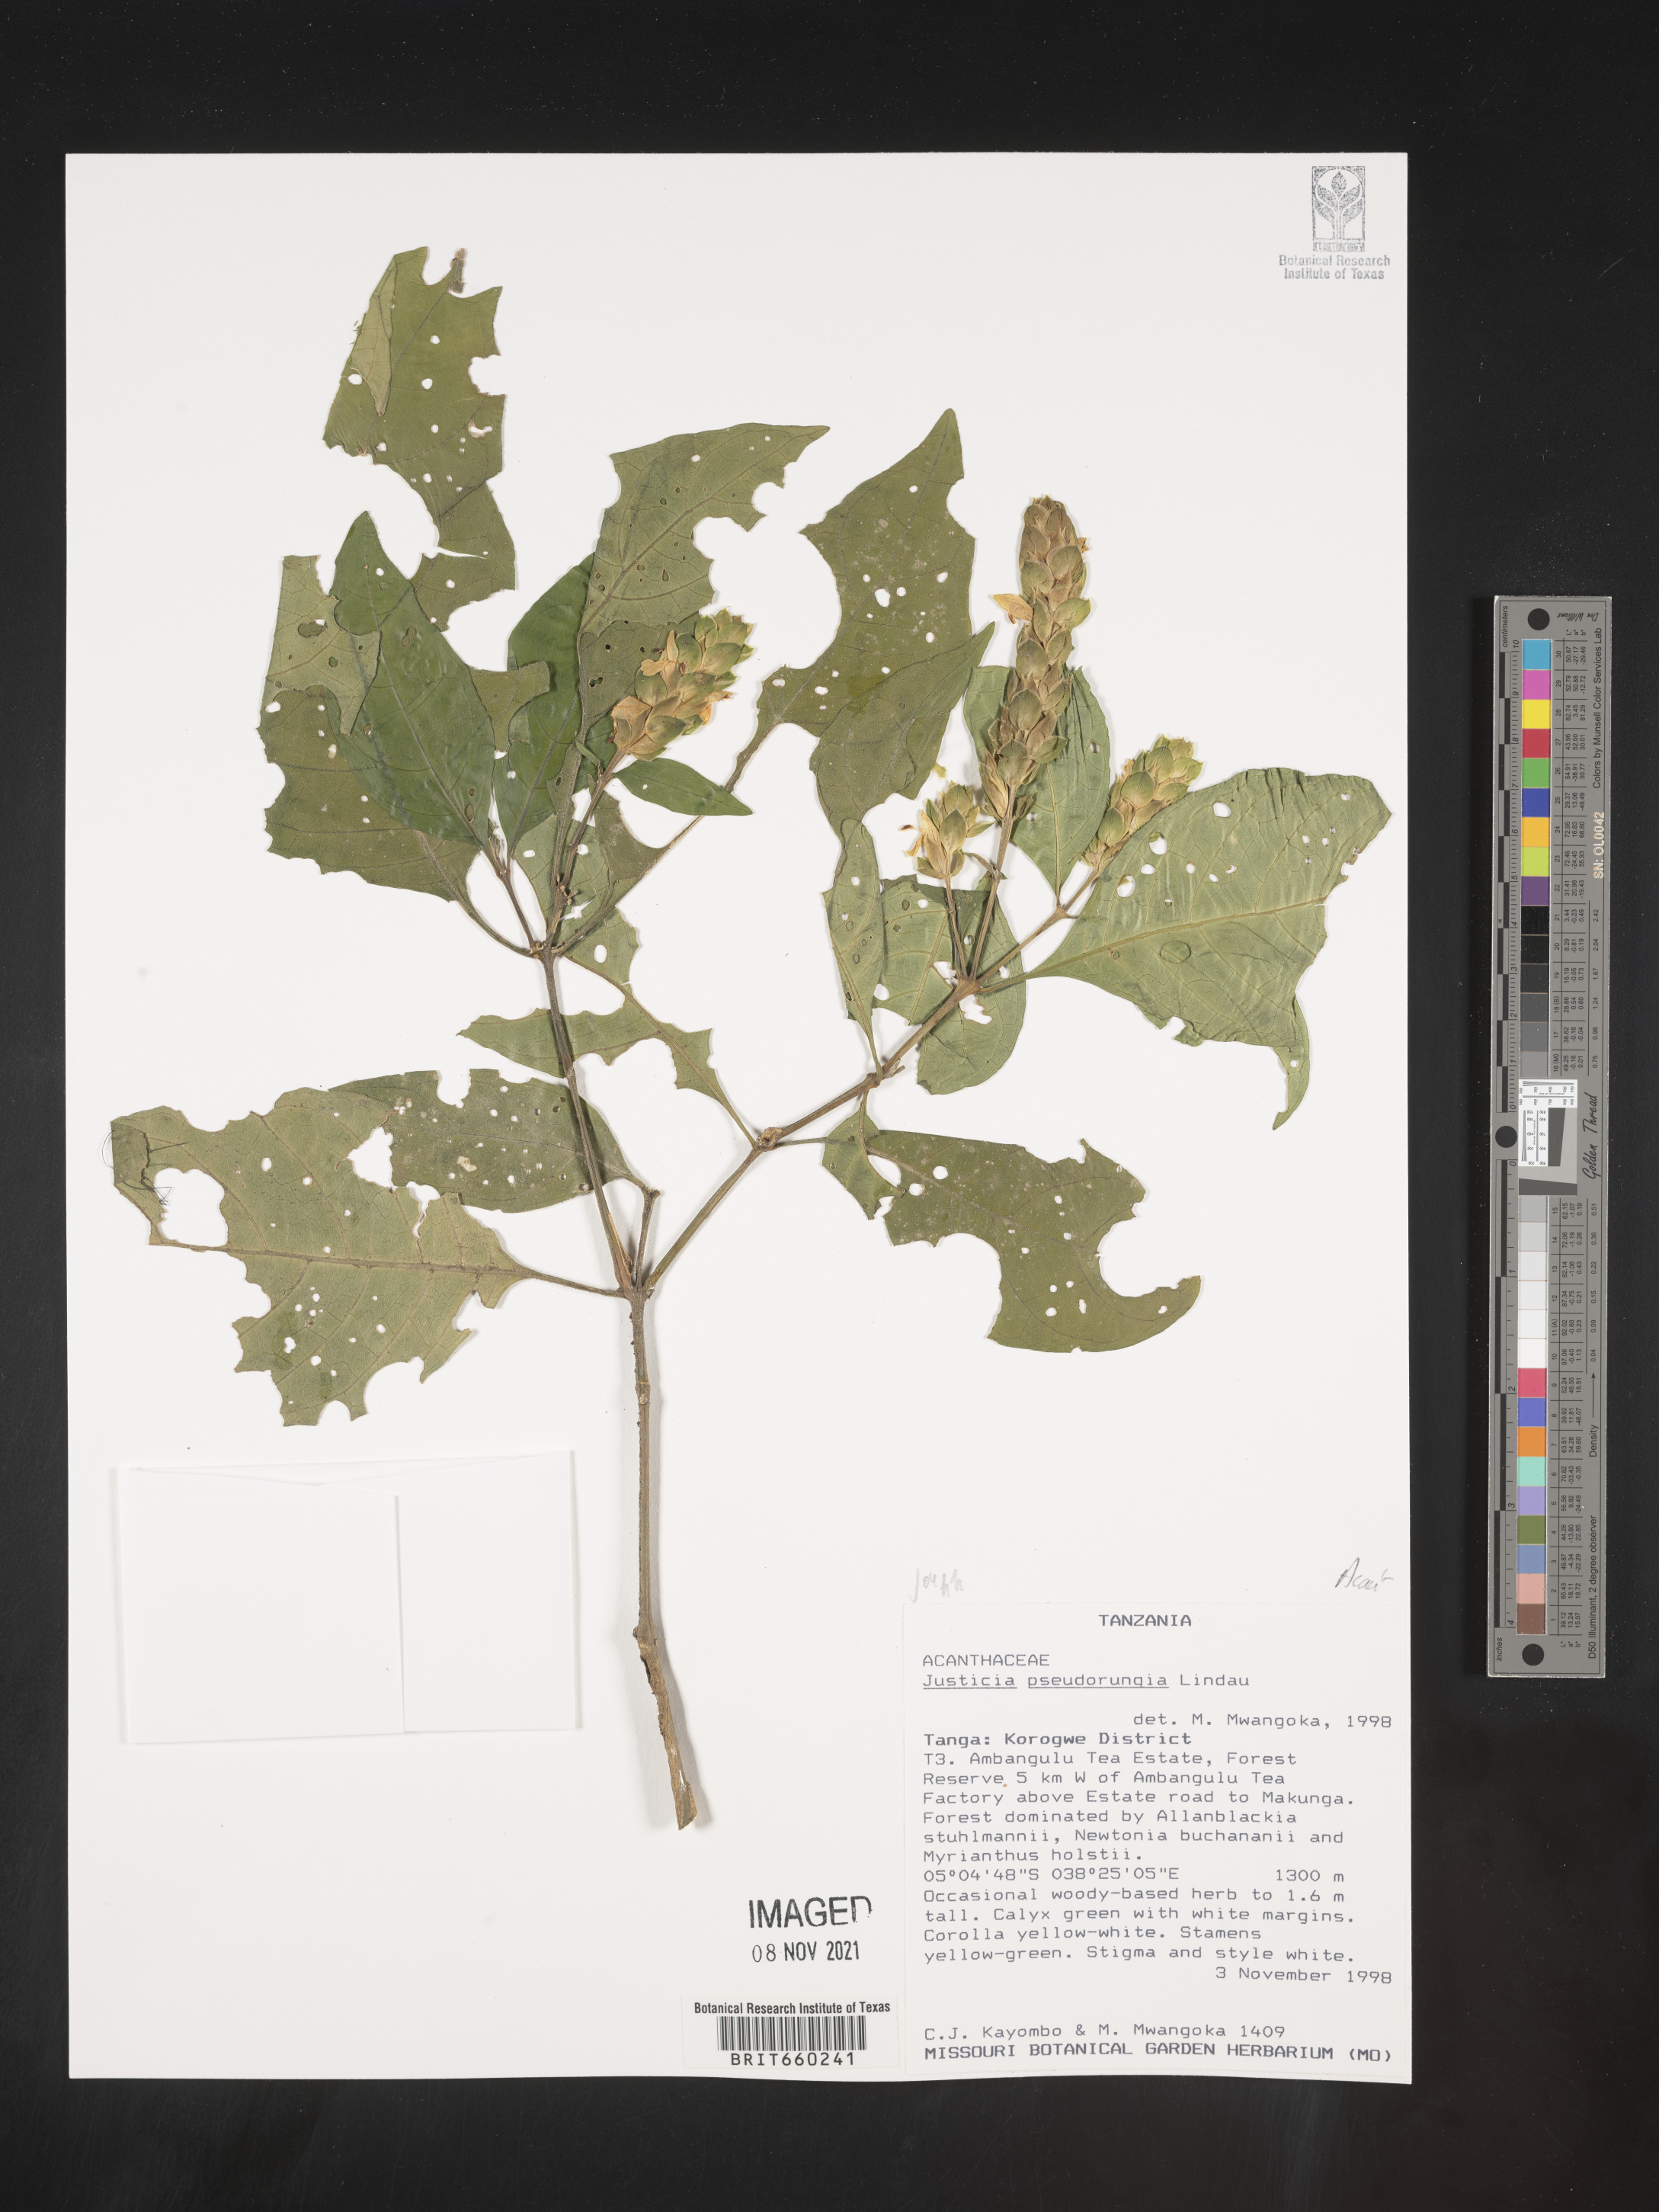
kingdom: Plantae
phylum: Tracheophyta
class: Magnoliopsida
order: Lamiales
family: Acanthaceae
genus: Justicia
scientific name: Justicia
